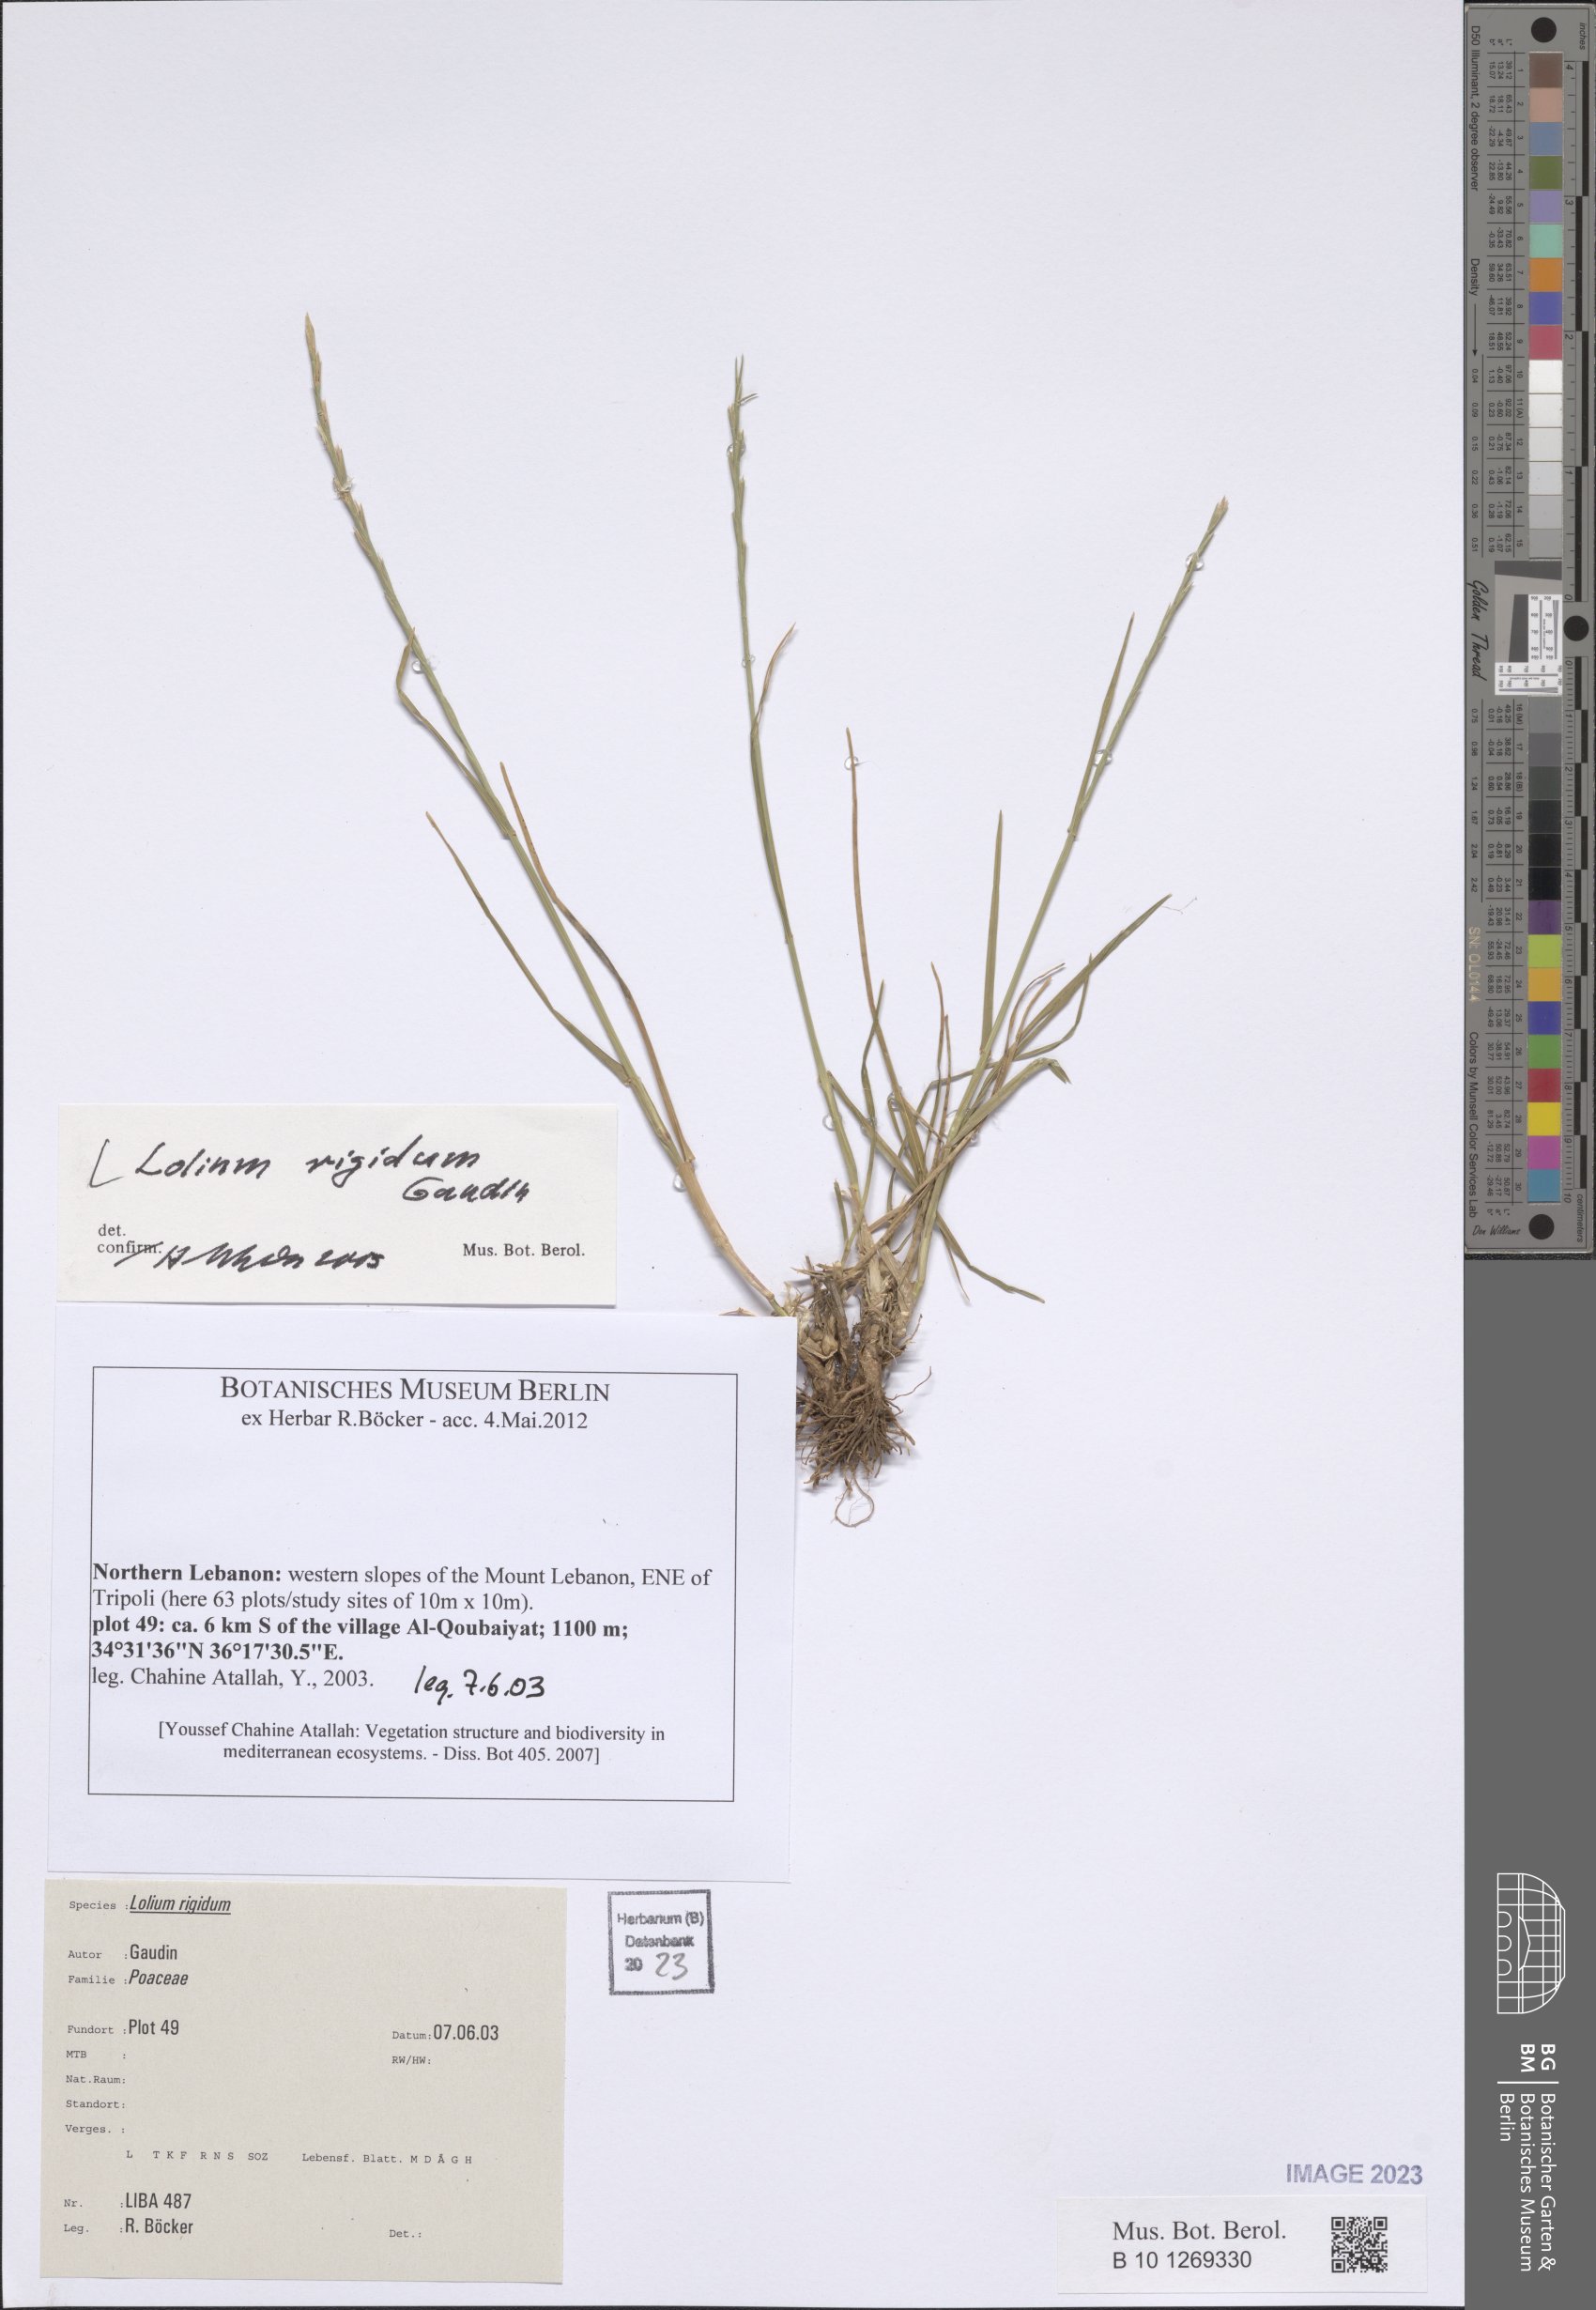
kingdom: Plantae
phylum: Tracheophyta
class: Liliopsida
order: Poales
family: Poaceae
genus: Lolium
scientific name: Lolium rigidum
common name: Wimmera ryegrass
